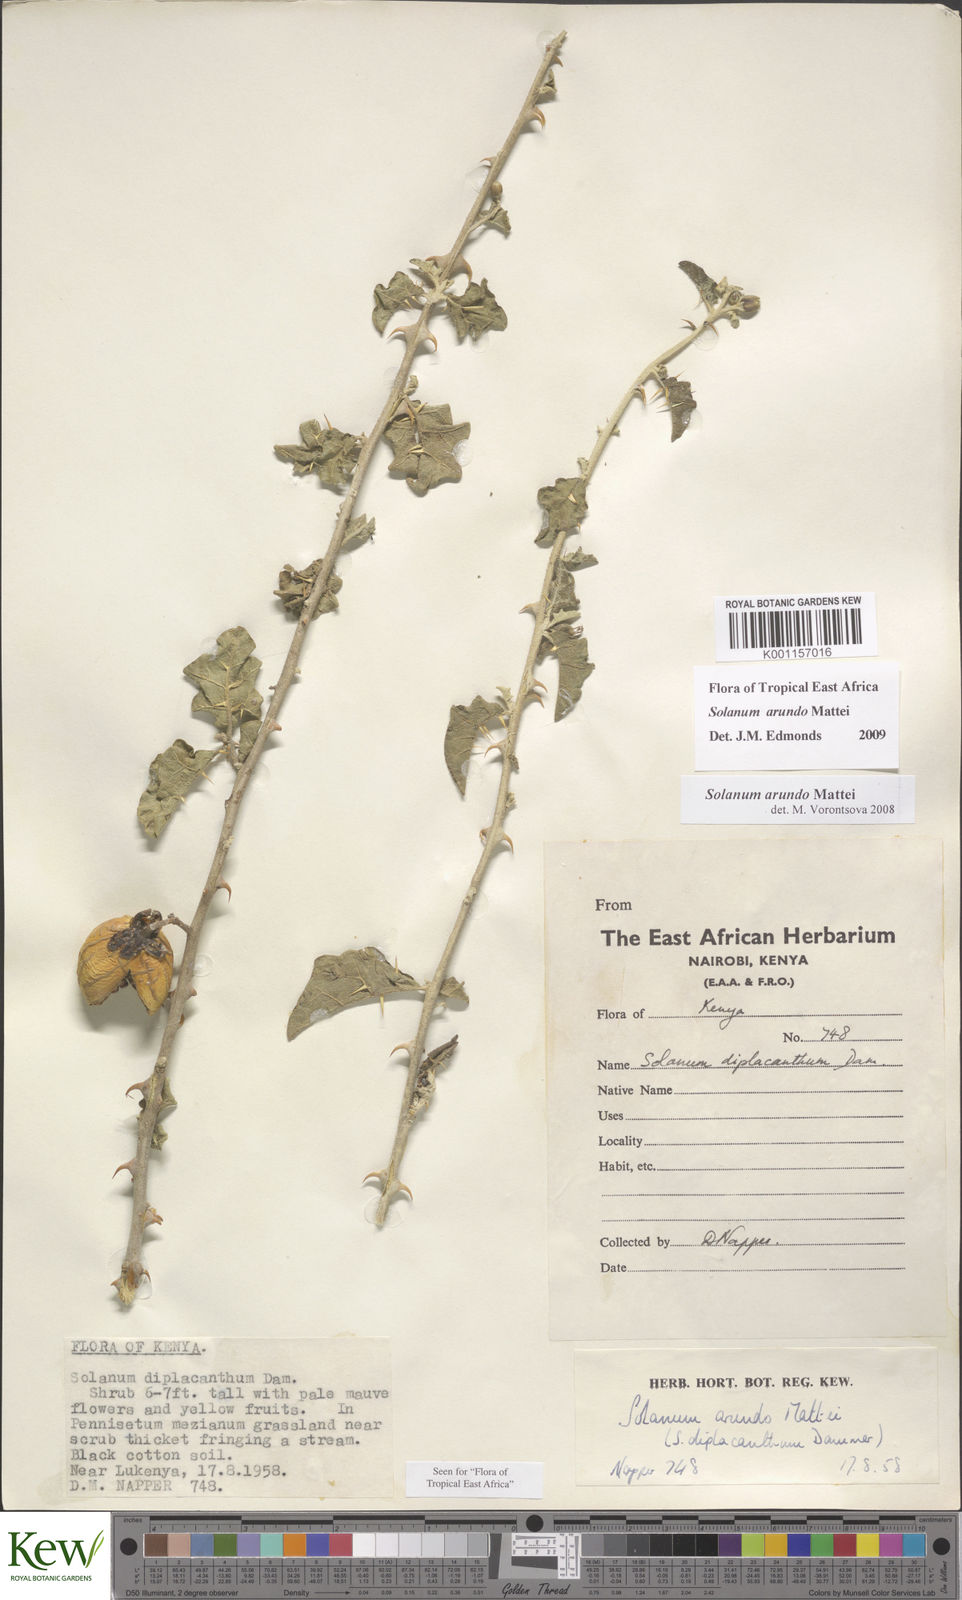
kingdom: Plantae
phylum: Tracheophyta
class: Magnoliopsida
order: Solanales
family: Solanaceae
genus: Solanum
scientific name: Solanum arundo
